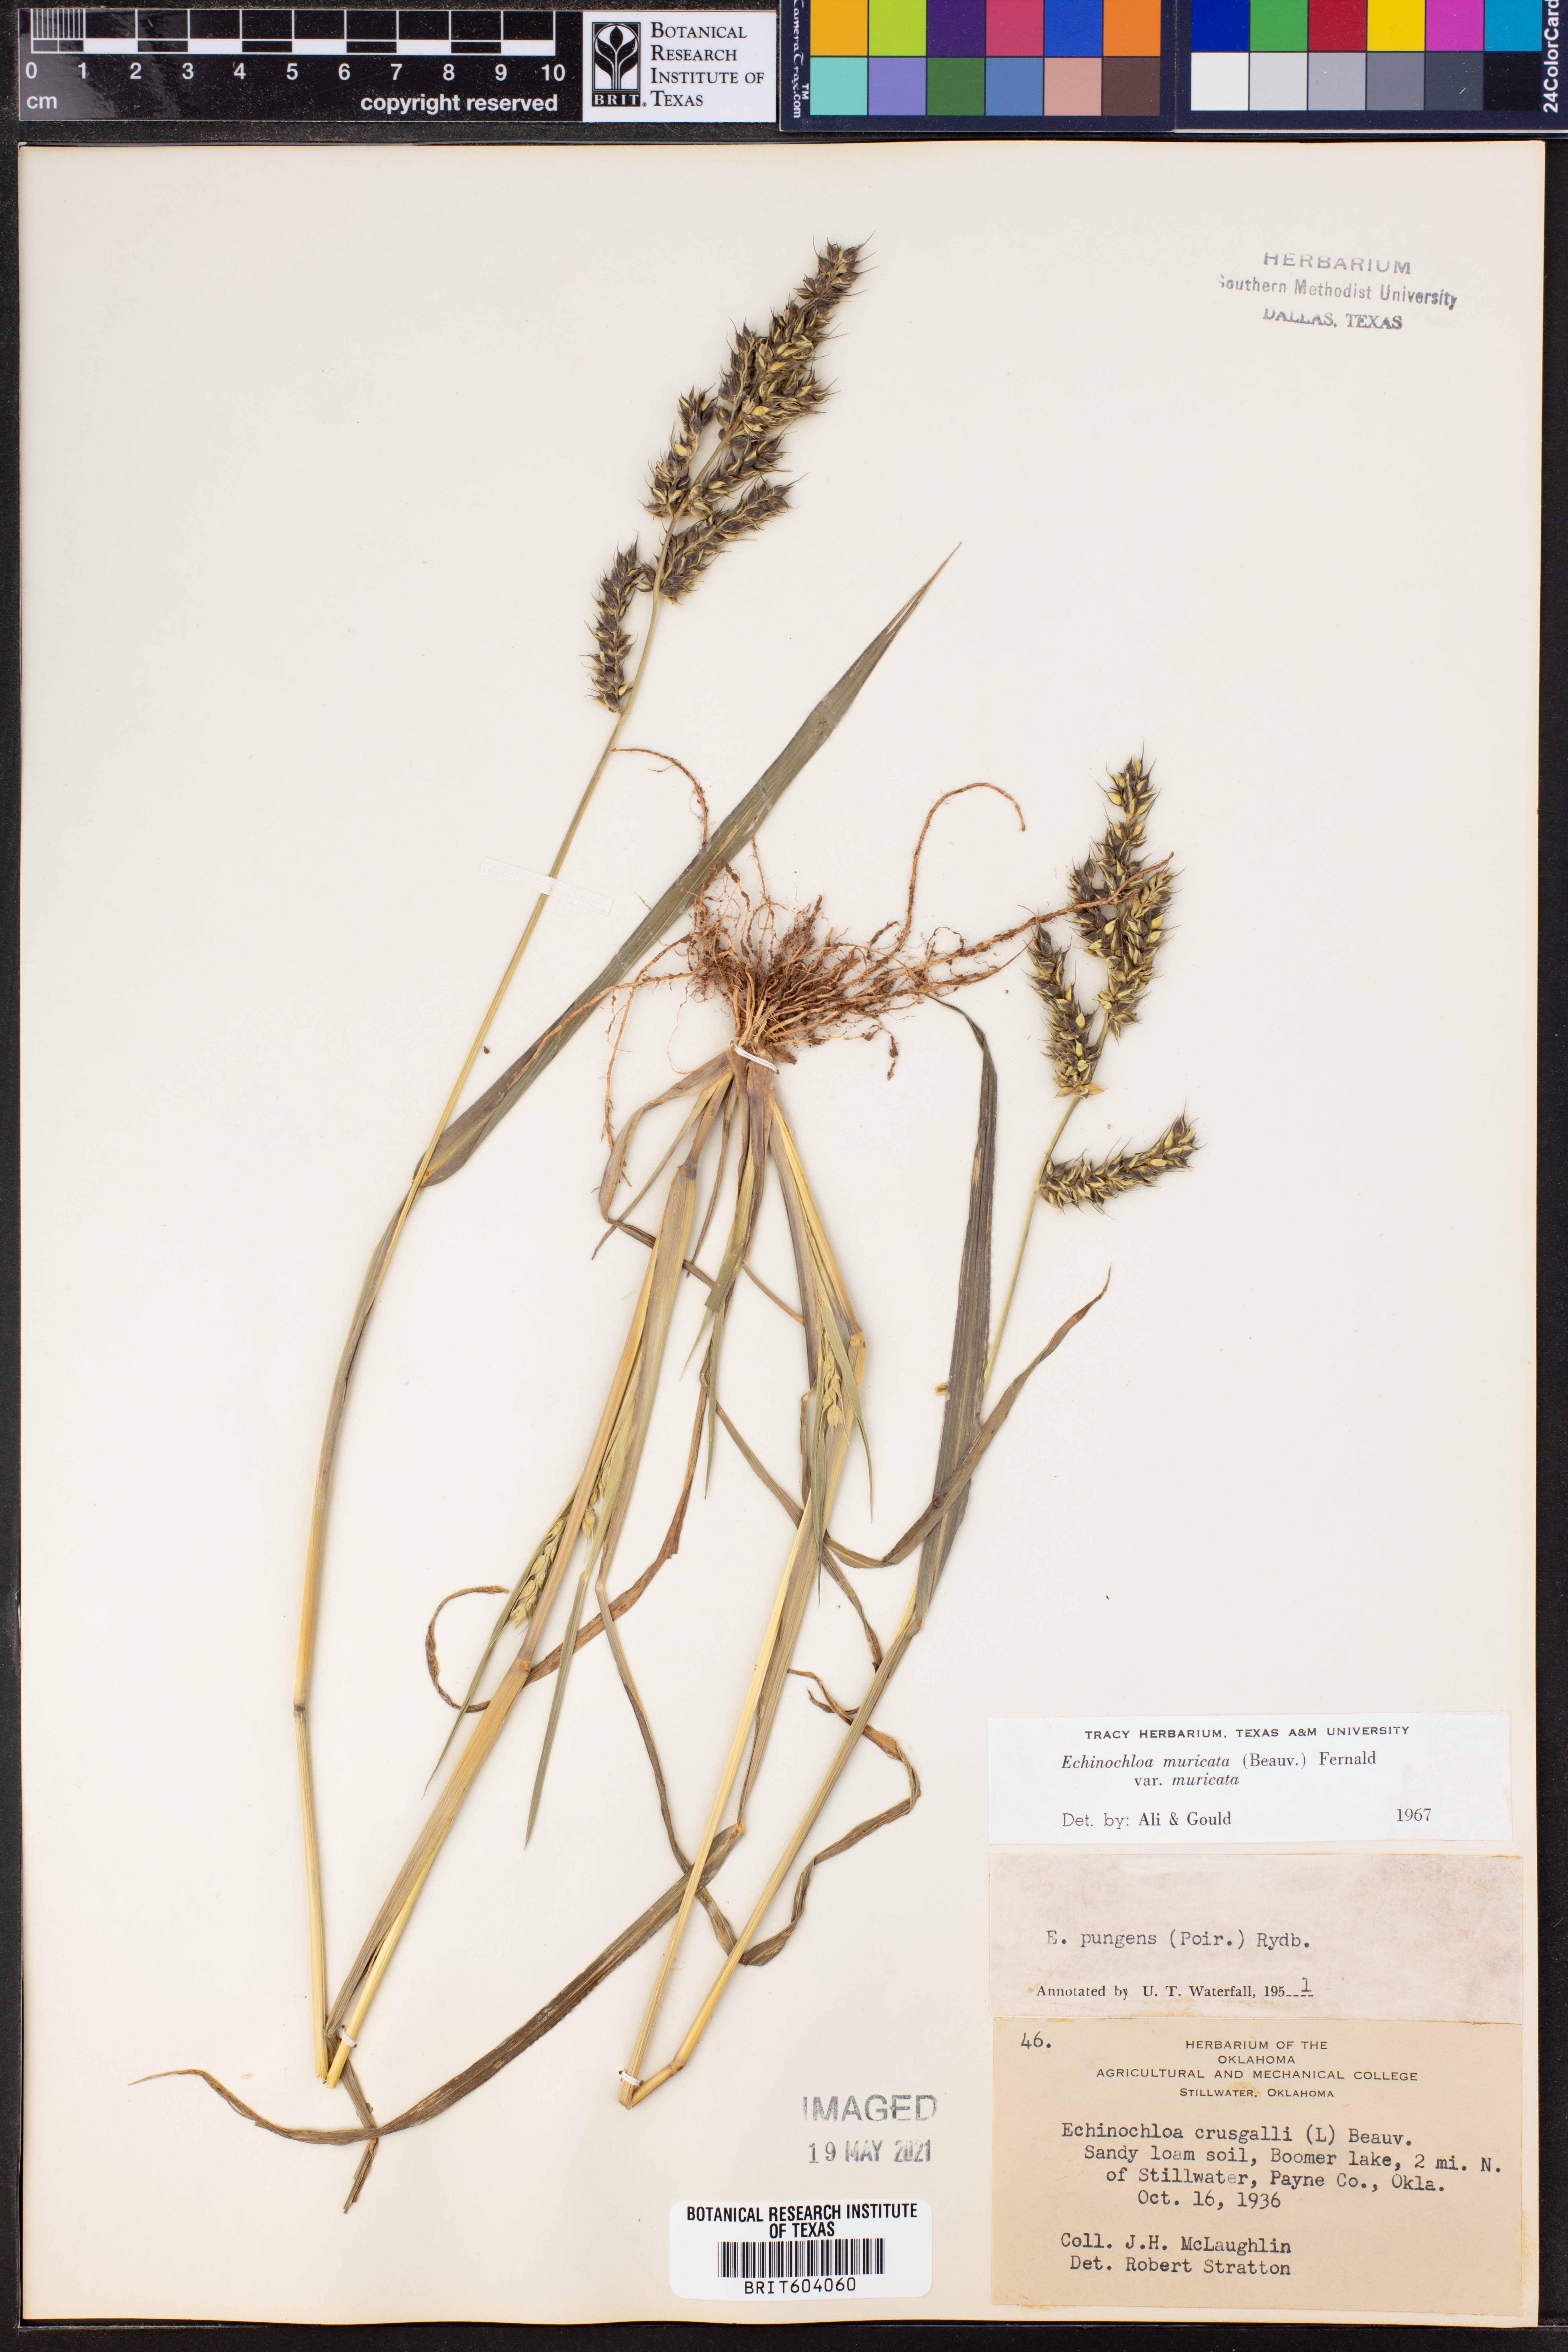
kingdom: Plantae
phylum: Tracheophyta
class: Liliopsida
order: Poales
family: Poaceae
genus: Echinochloa
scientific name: Echinochloa muricata
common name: American barnyard grass
